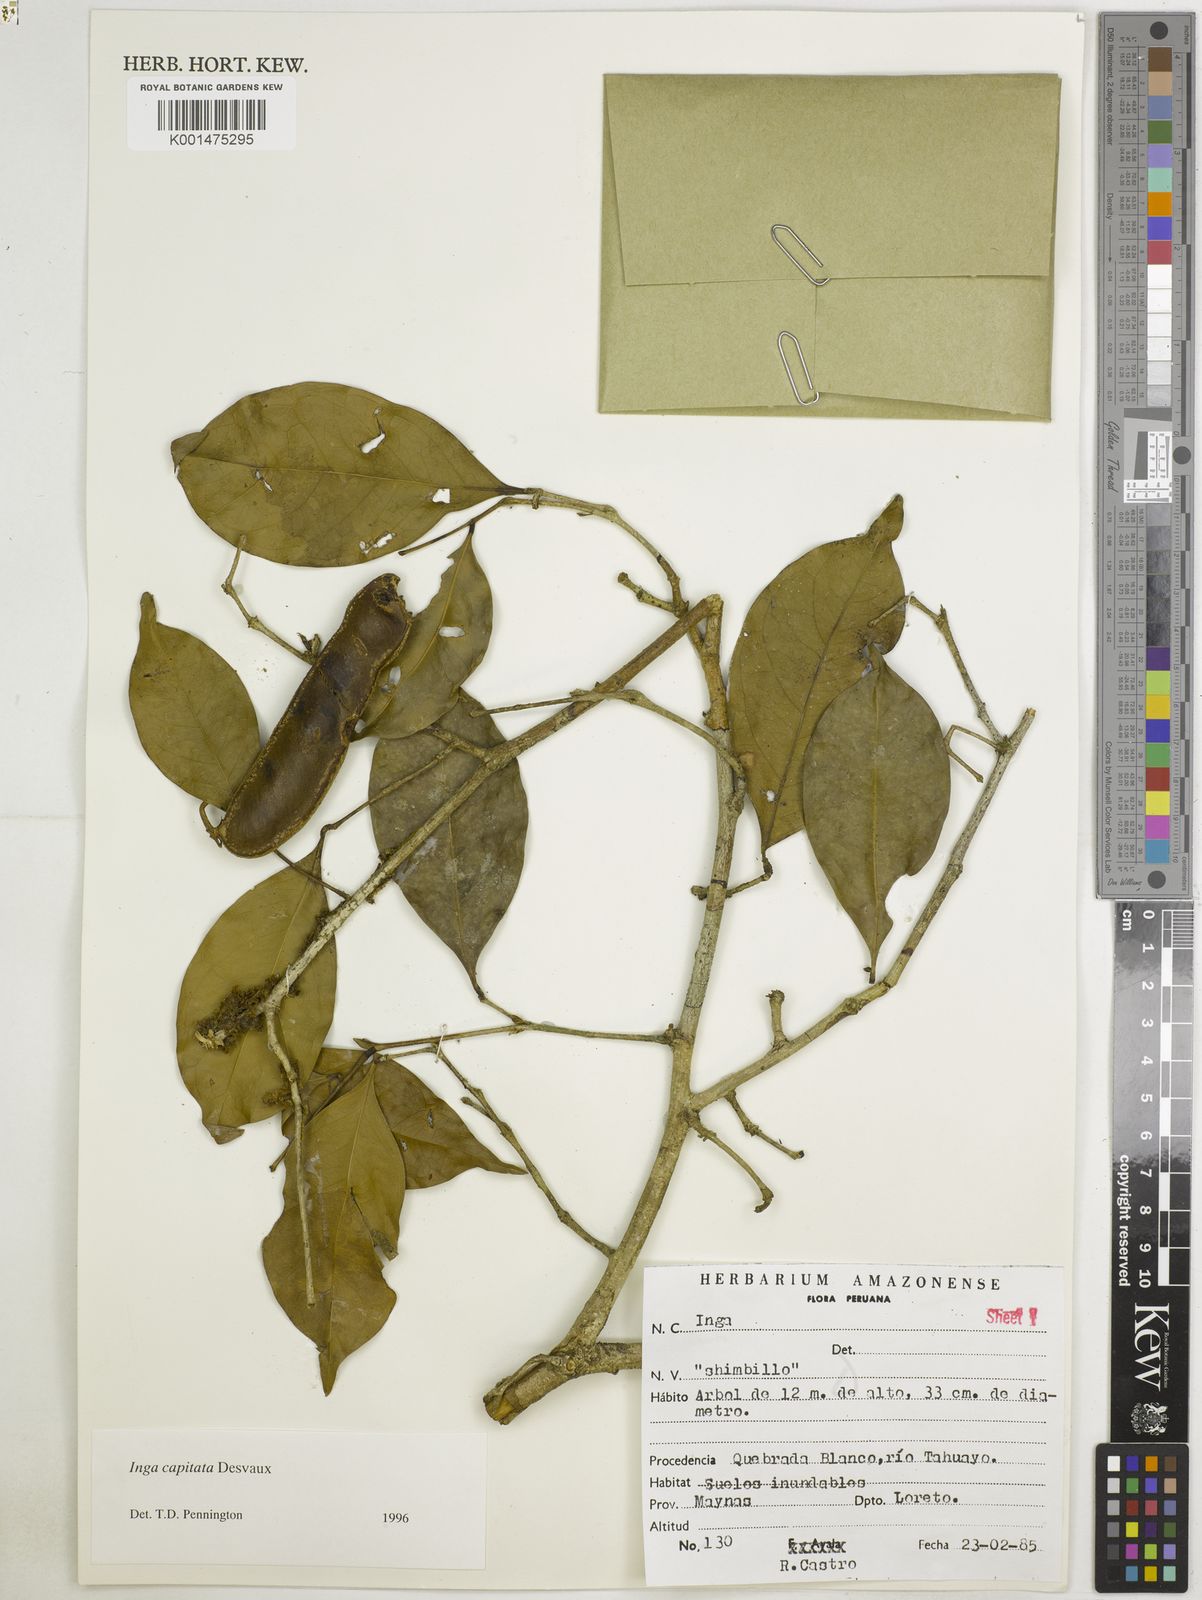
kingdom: Plantae
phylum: Tracheophyta
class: Magnoliopsida
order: Fabales
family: Fabaceae
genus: Inga
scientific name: Inga capitata
